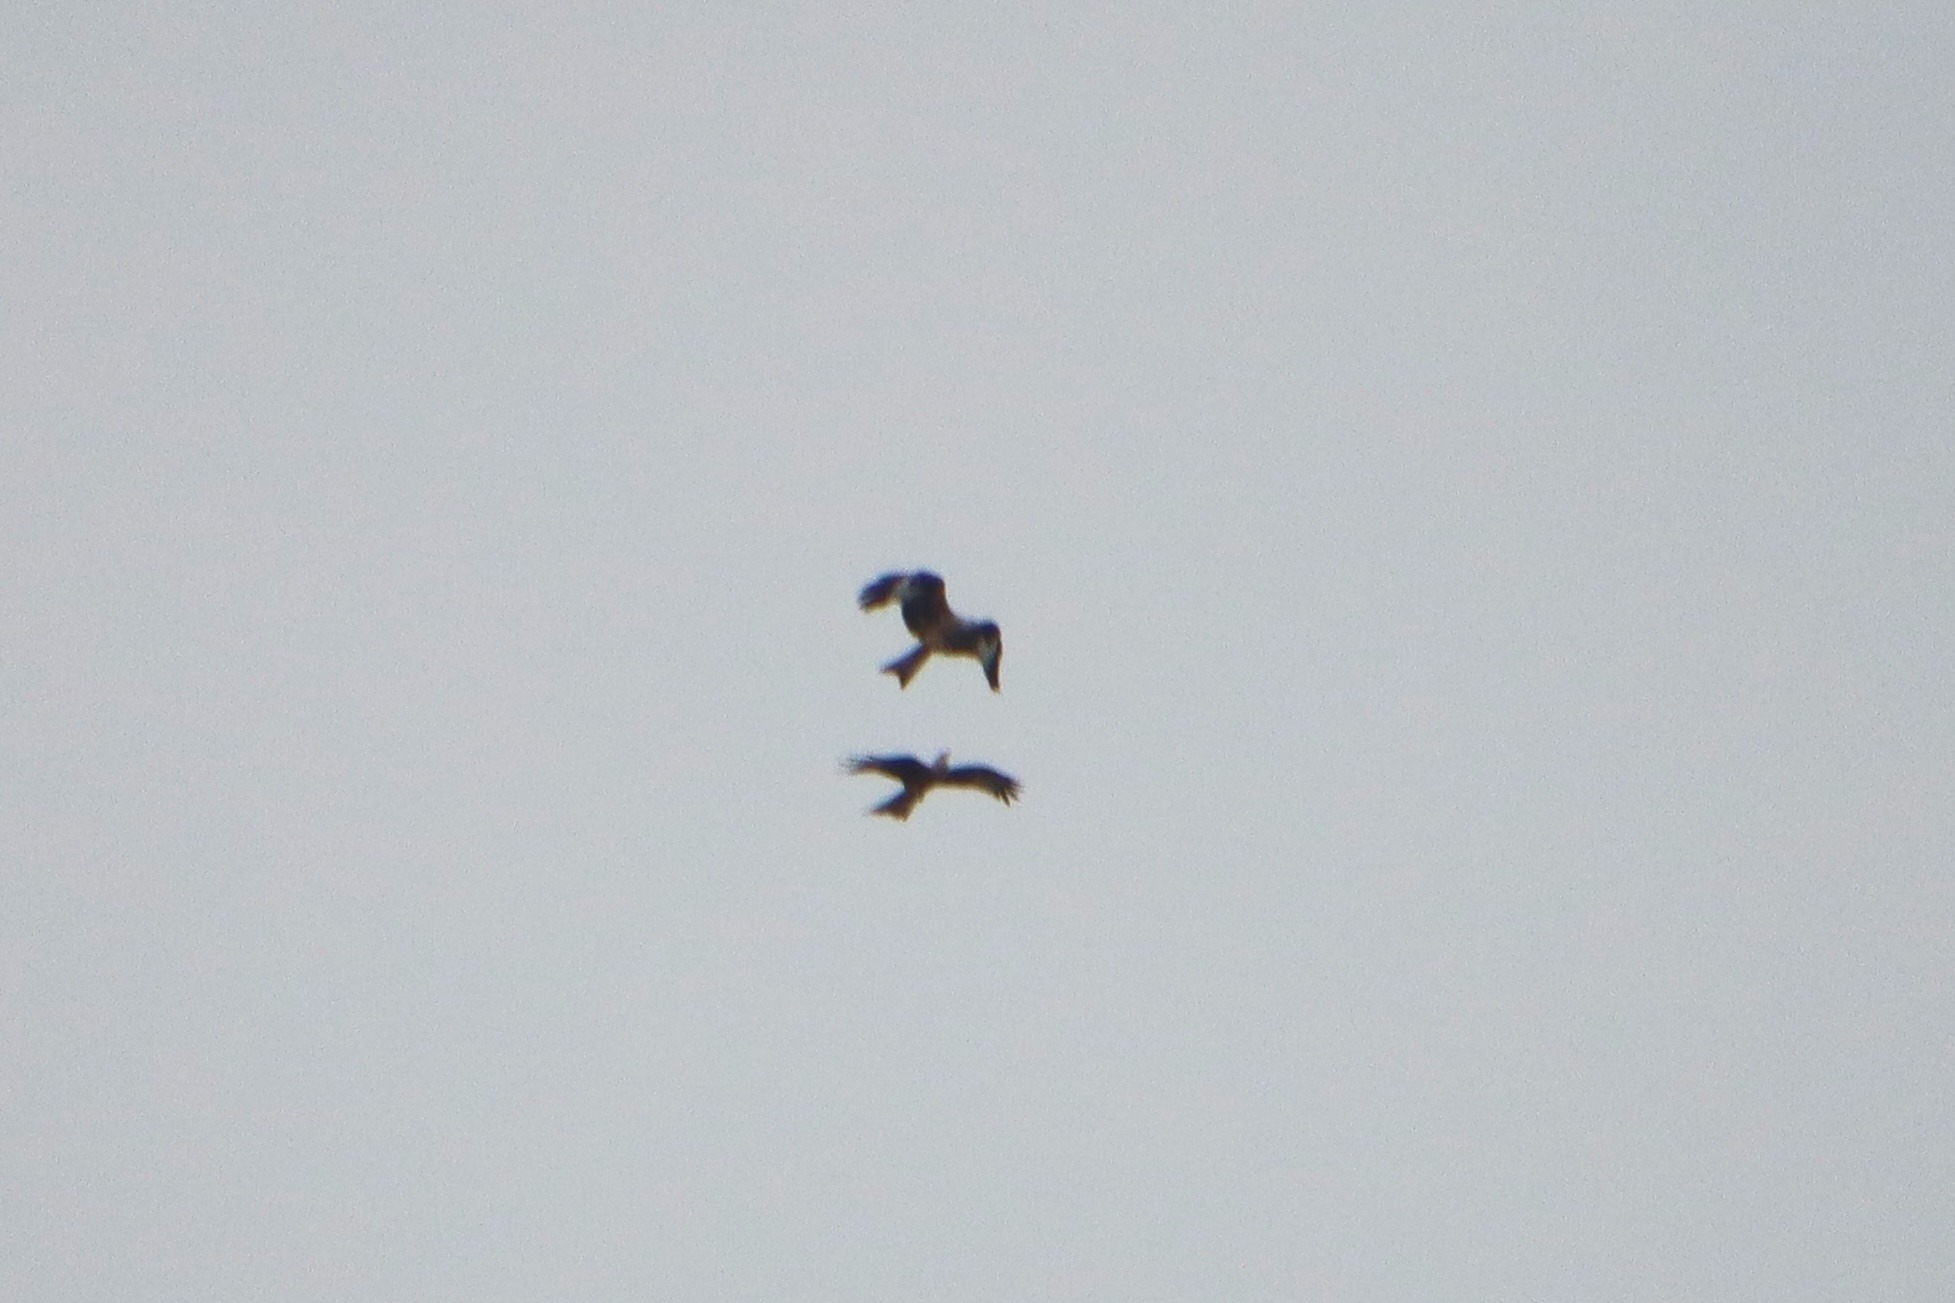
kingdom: Animalia
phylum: Chordata
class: Aves
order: Accipitriformes
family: Accipitridae
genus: Milvus
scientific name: Milvus milvus
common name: Rød glente
